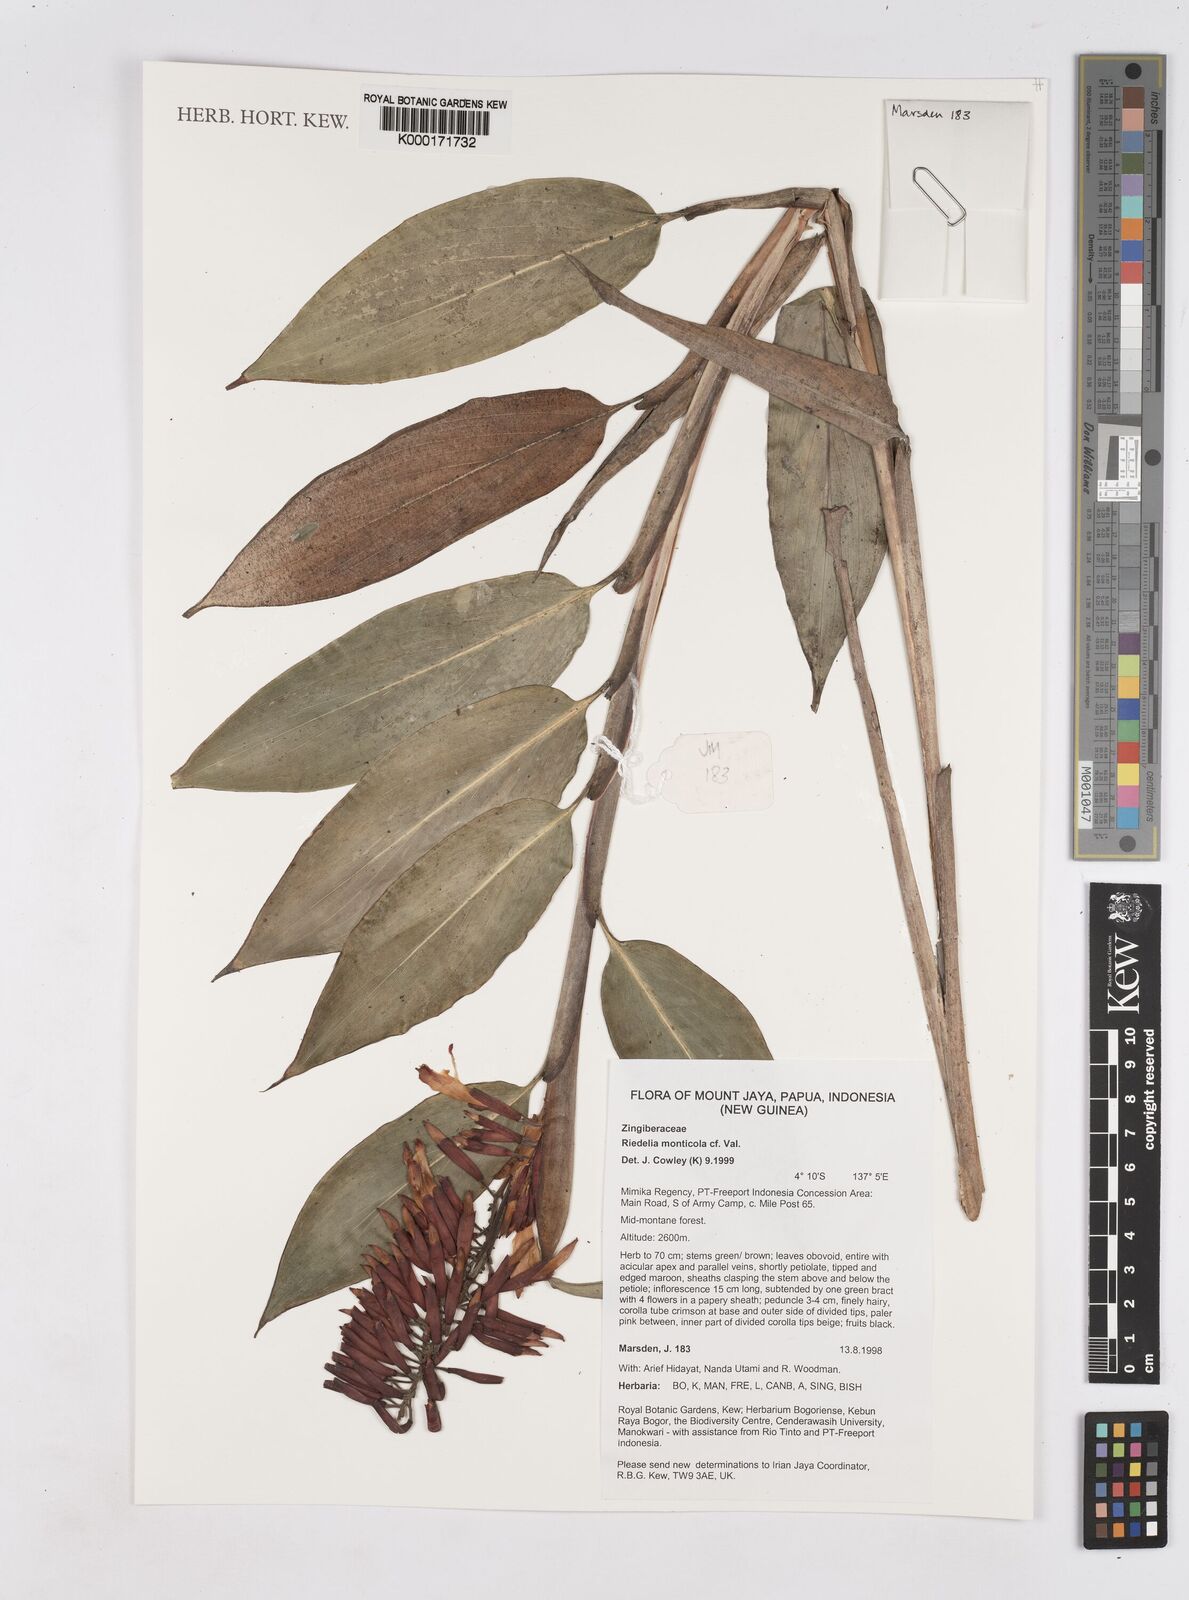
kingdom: Plantae
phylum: Tracheophyta
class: Liliopsida
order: Zingiberales
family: Zingiberaceae
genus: Riedelia
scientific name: Riedelia monticola
